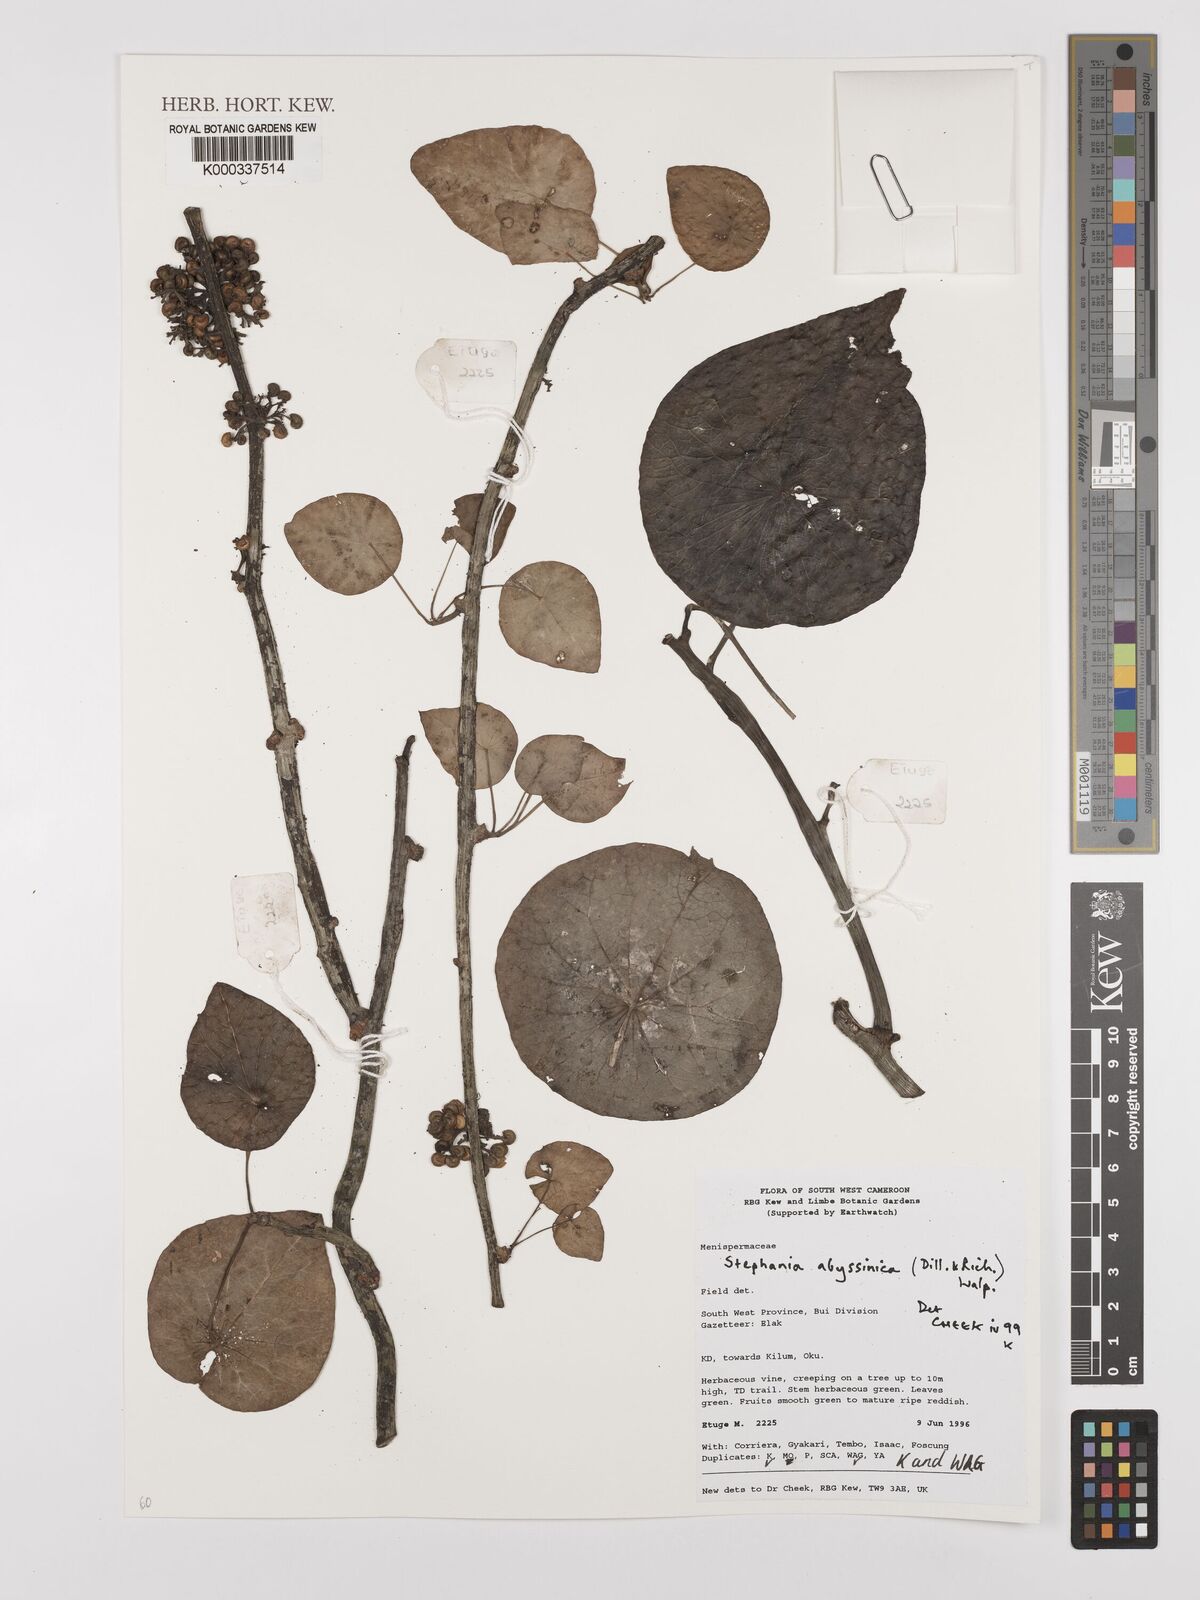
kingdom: Plantae
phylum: Tracheophyta
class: Magnoliopsida
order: Ranunculales
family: Menispermaceae
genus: Stephania
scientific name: Stephania
